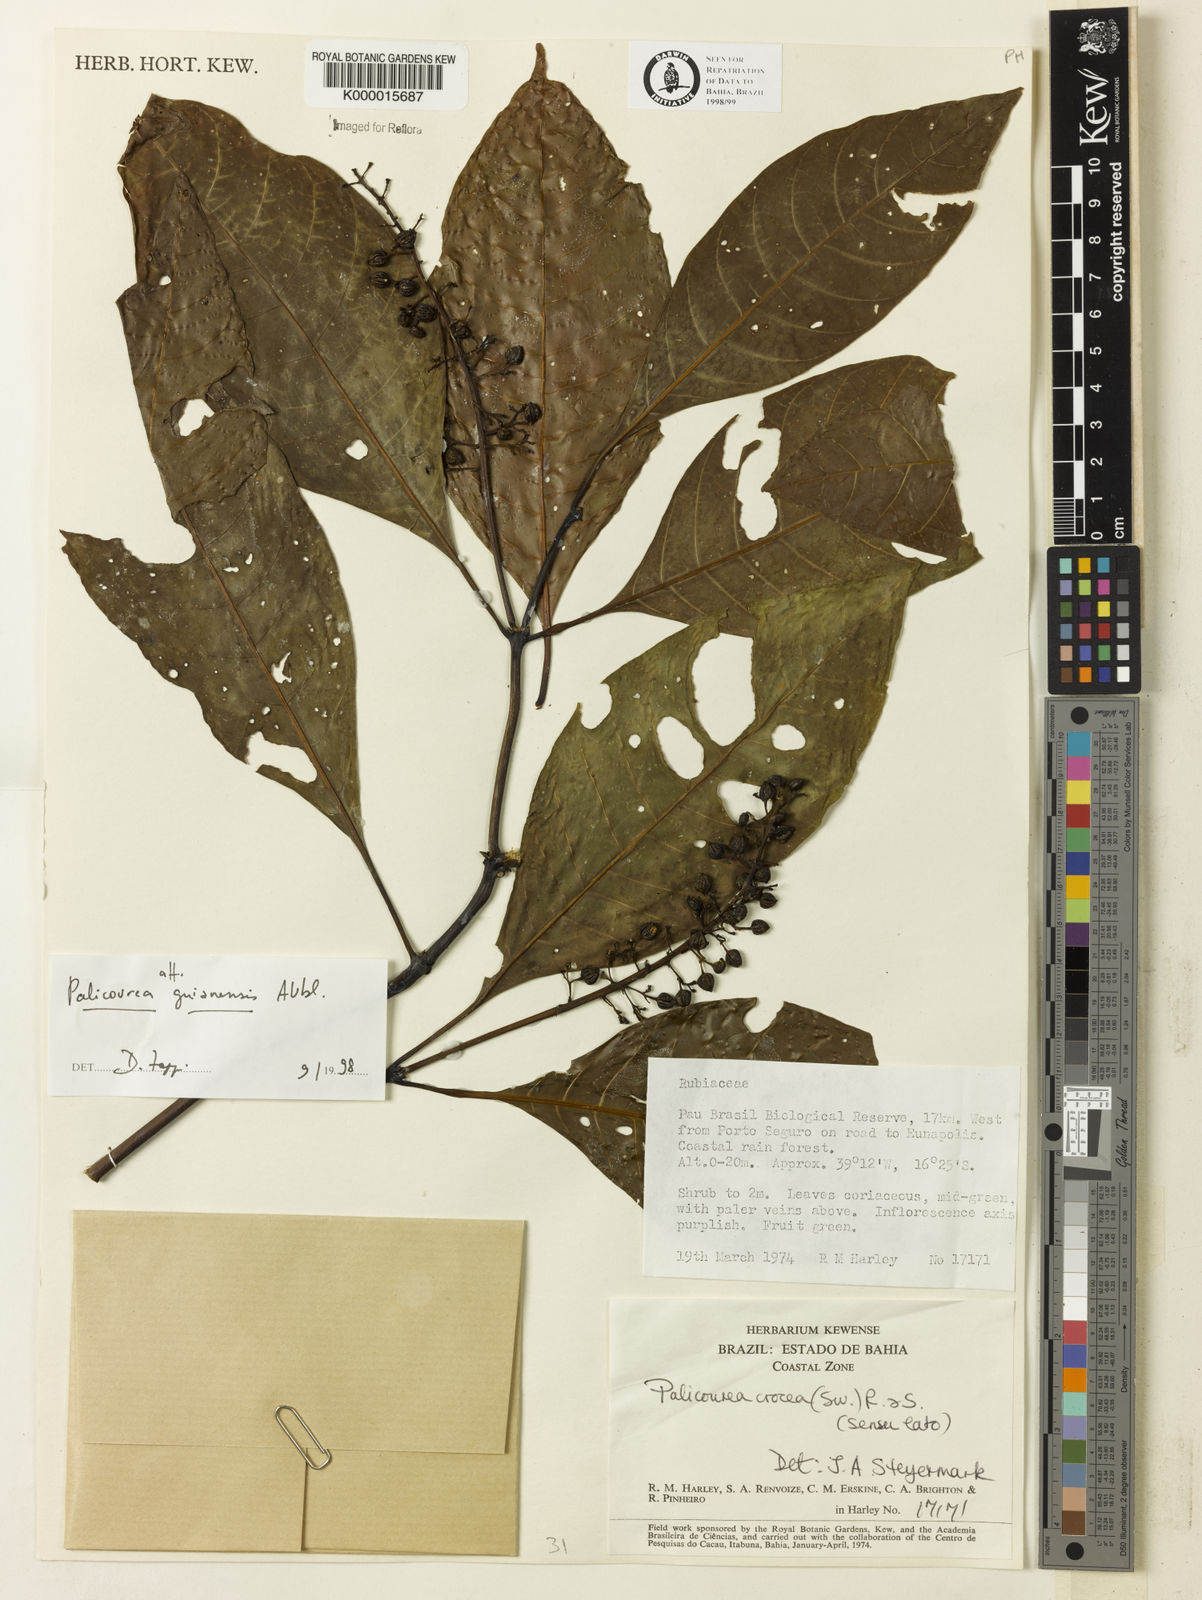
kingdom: Plantae
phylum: Tracheophyta
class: Magnoliopsida
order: Gentianales
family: Rubiaceae
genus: Palicourea
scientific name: Palicourea guianensis
